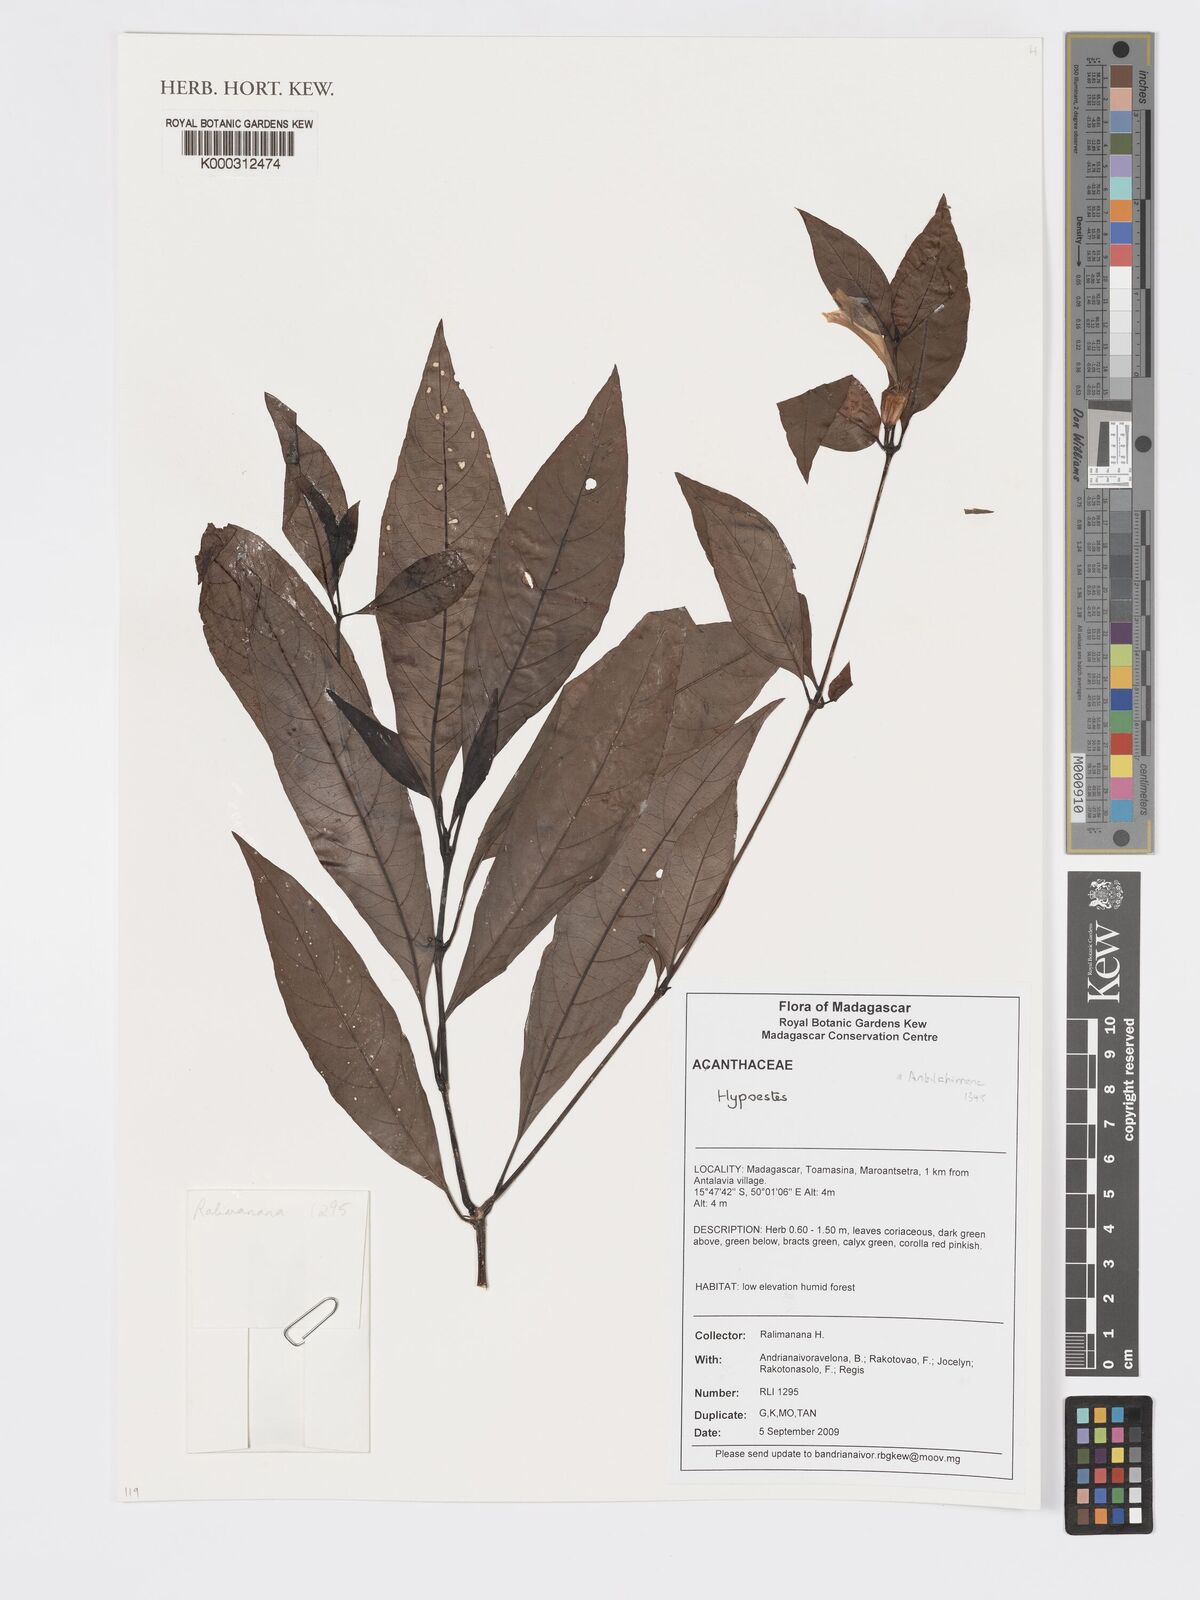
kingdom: Plantae
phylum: Tracheophyta
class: Magnoliopsida
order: Lamiales
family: Acanthaceae
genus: Hypoestes
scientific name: Hypoestes
